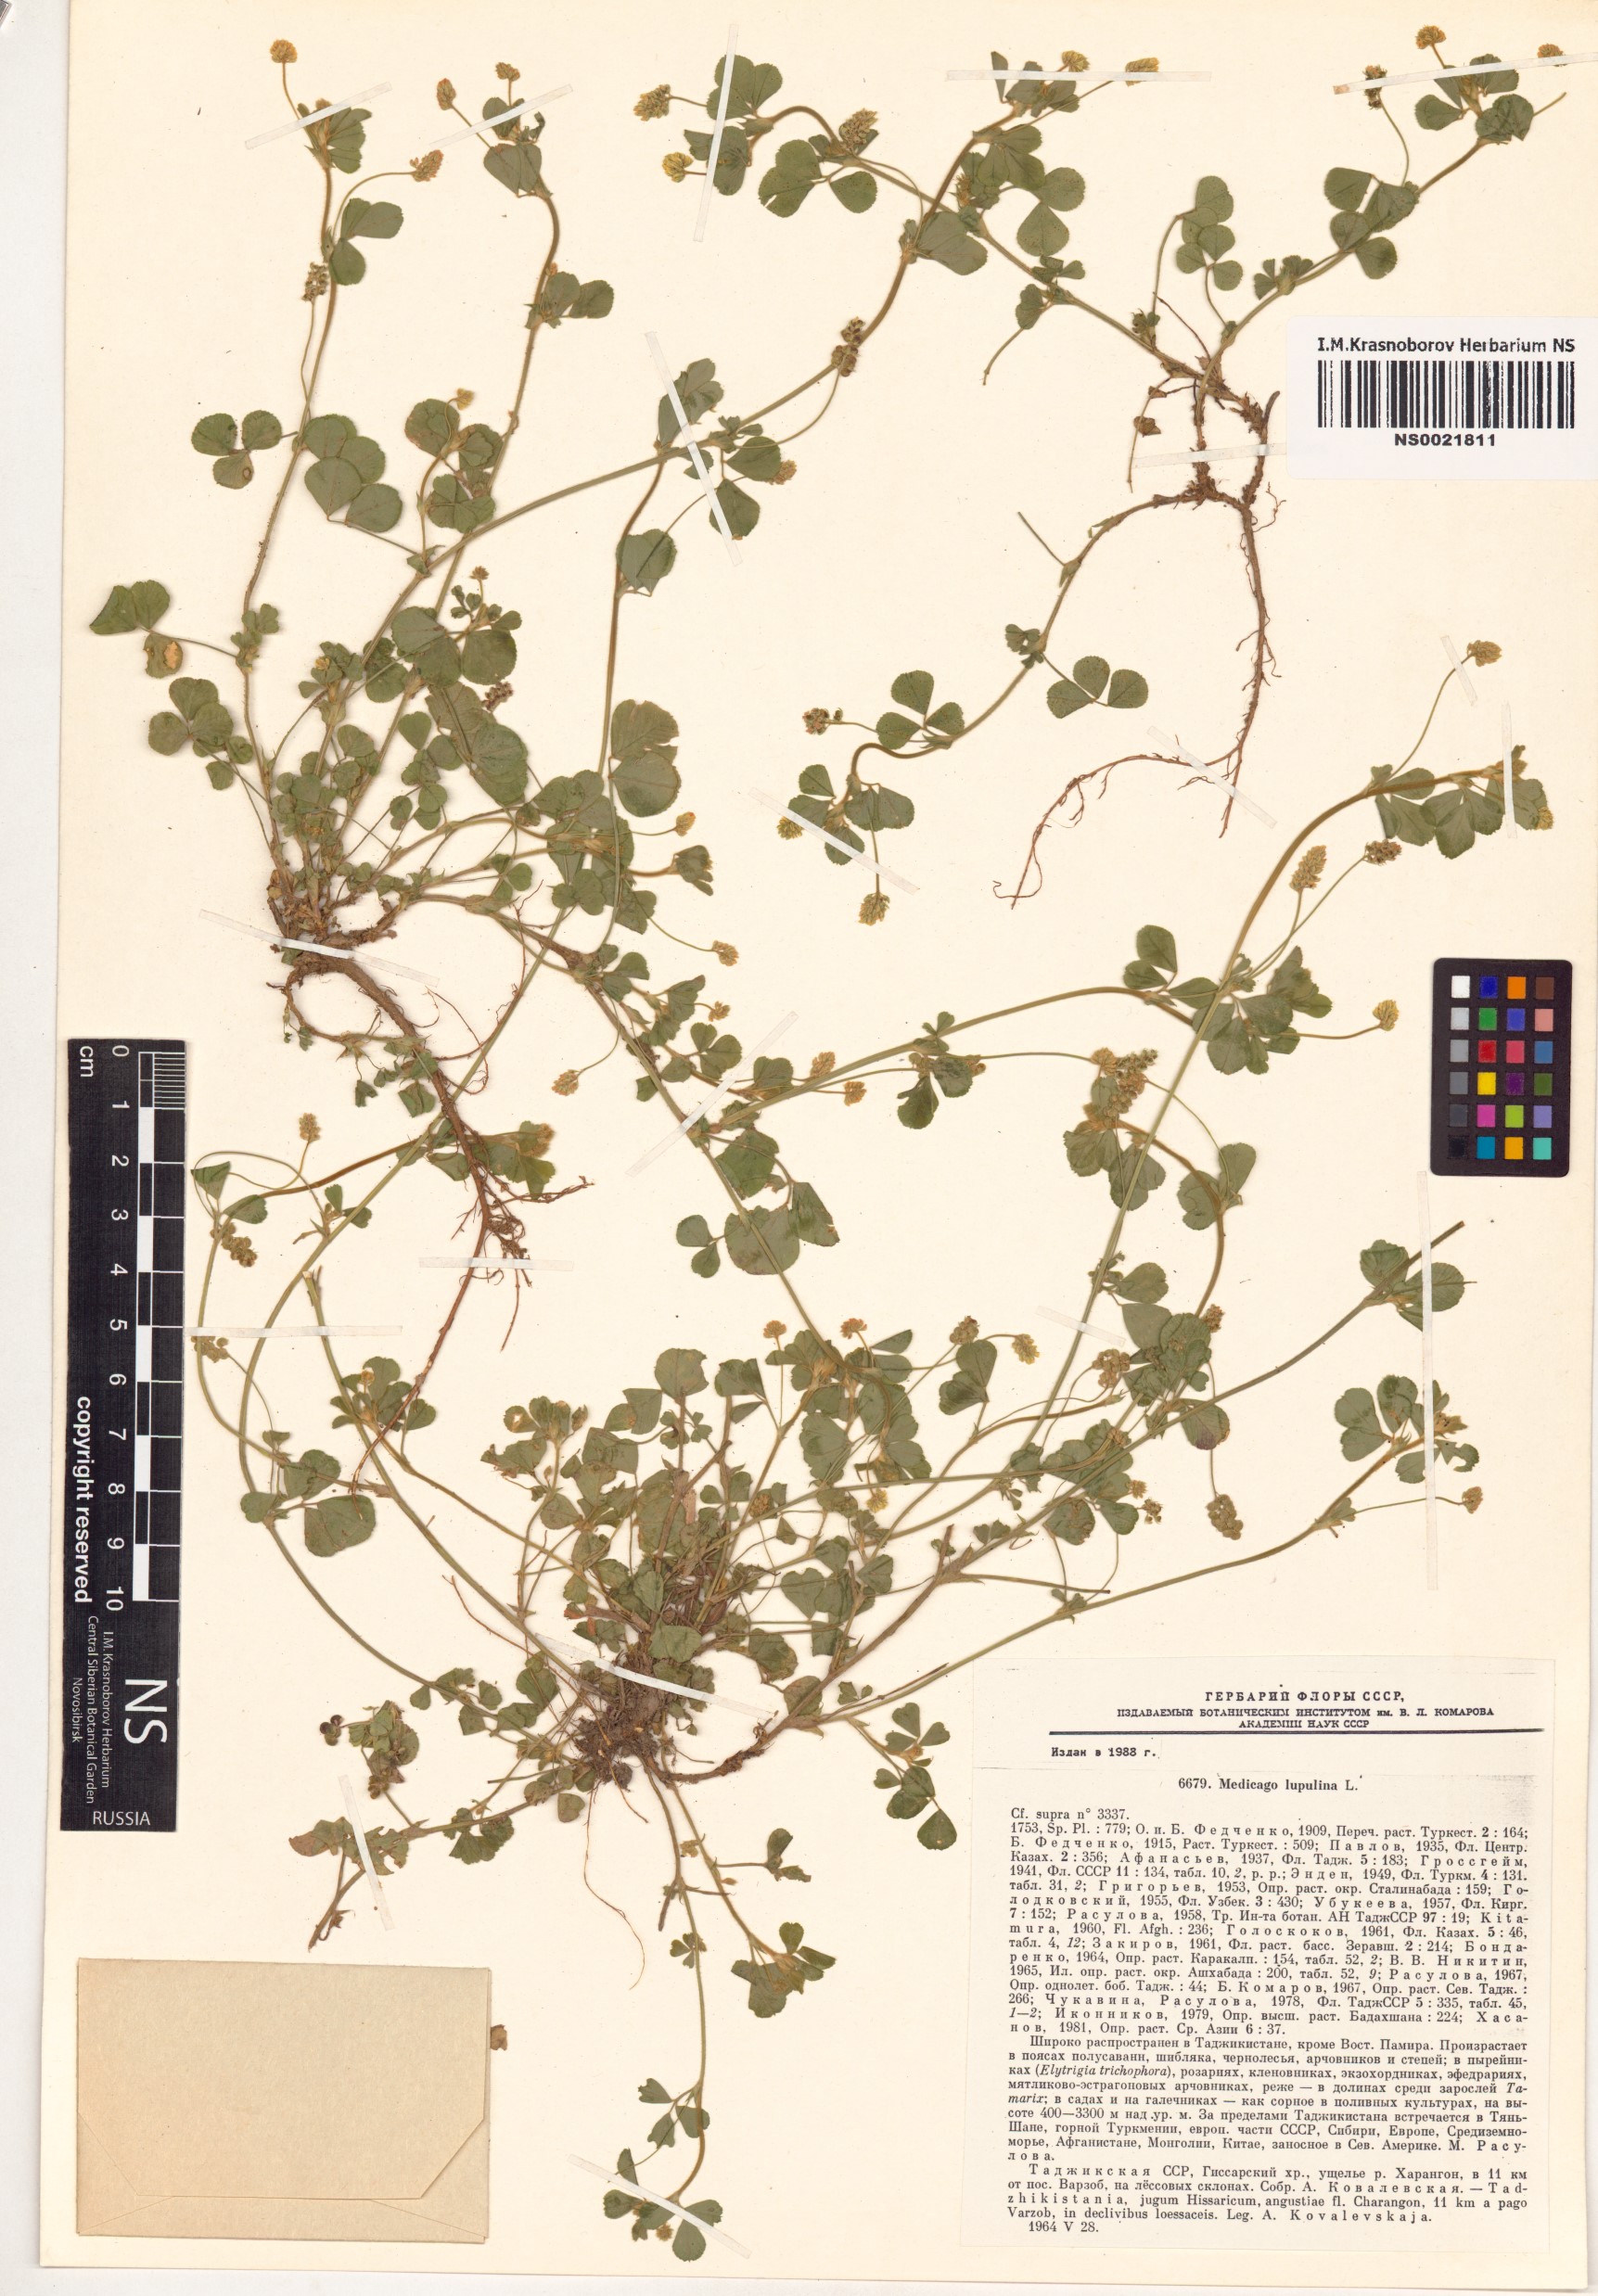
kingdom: Plantae
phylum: Tracheophyta
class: Magnoliopsida
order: Fabales
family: Fabaceae
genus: Medicago
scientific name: Medicago lupulina
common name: Black medick
